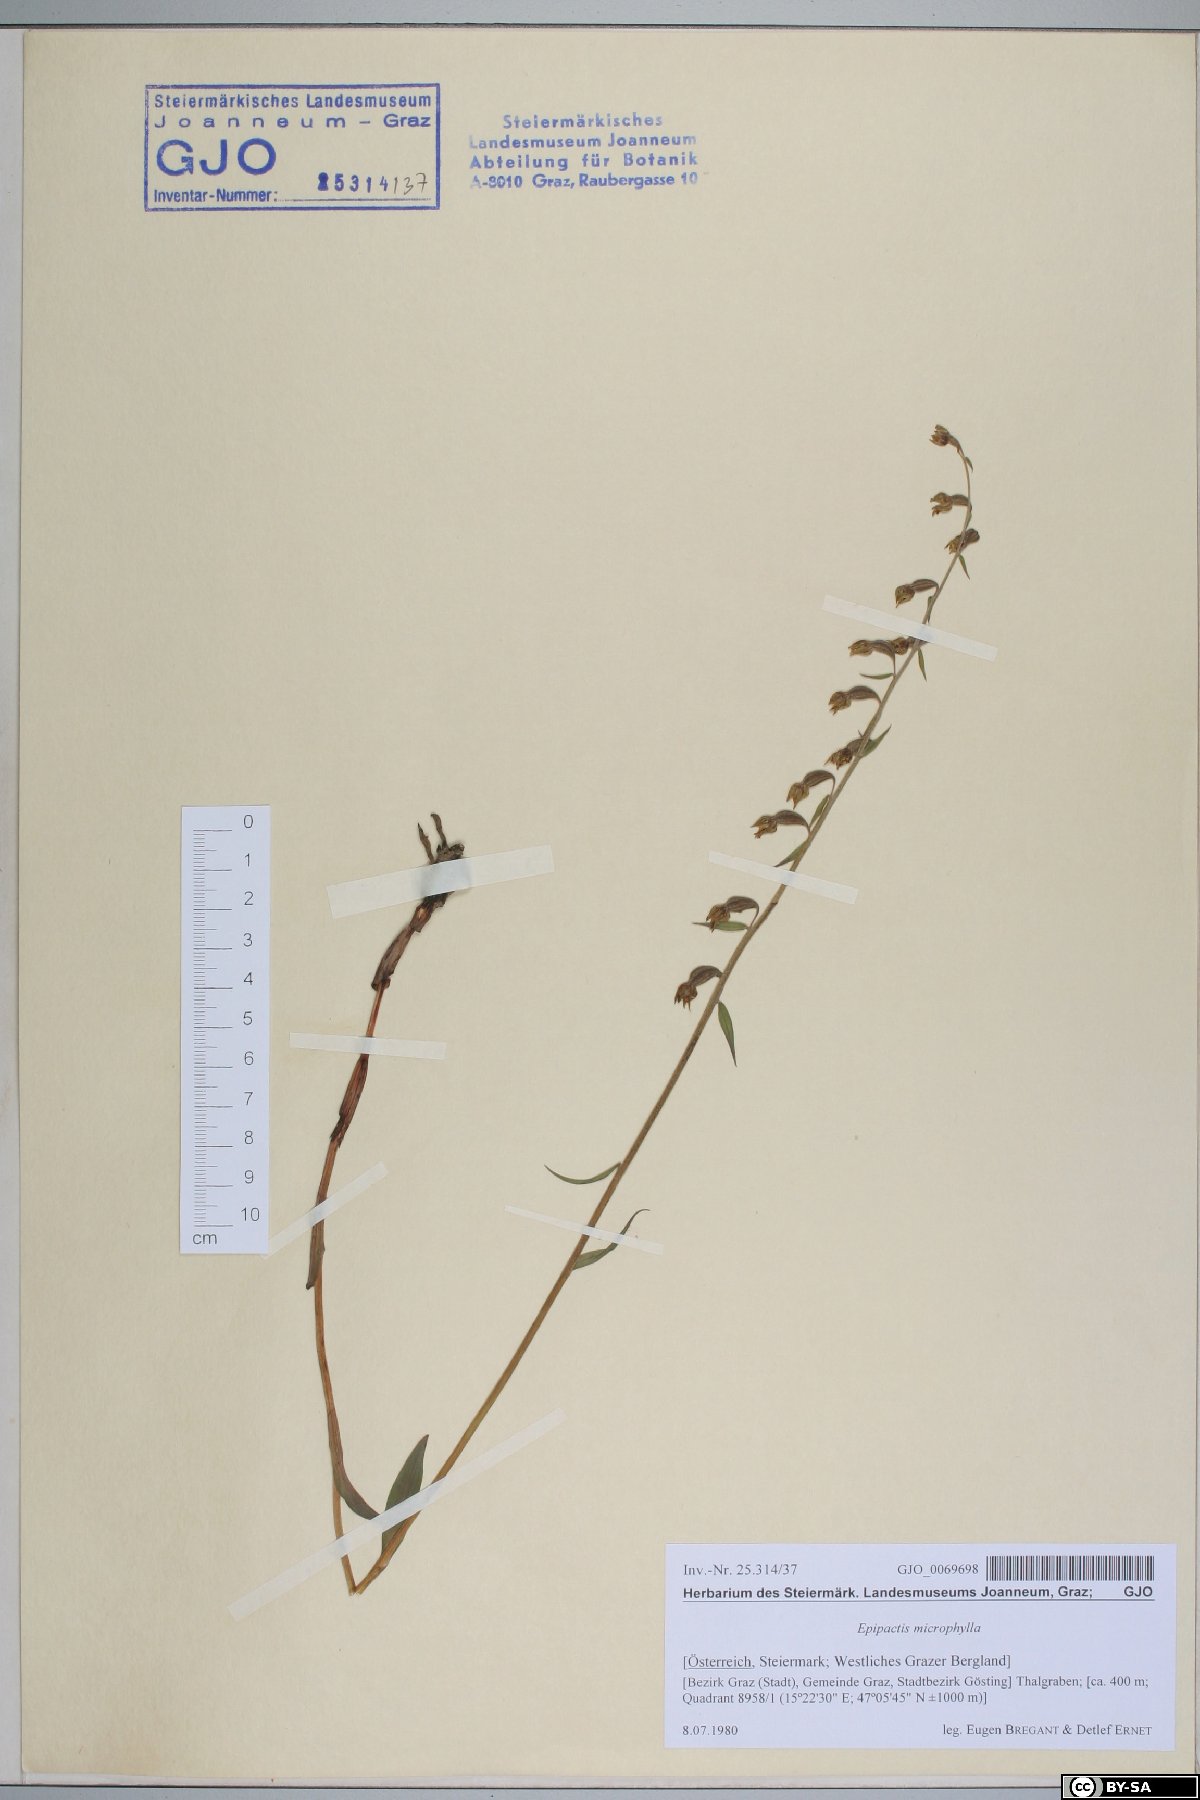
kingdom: Plantae
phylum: Tracheophyta
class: Liliopsida
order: Asparagales
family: Orchidaceae
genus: Epipactis
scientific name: Epipactis microphylla
